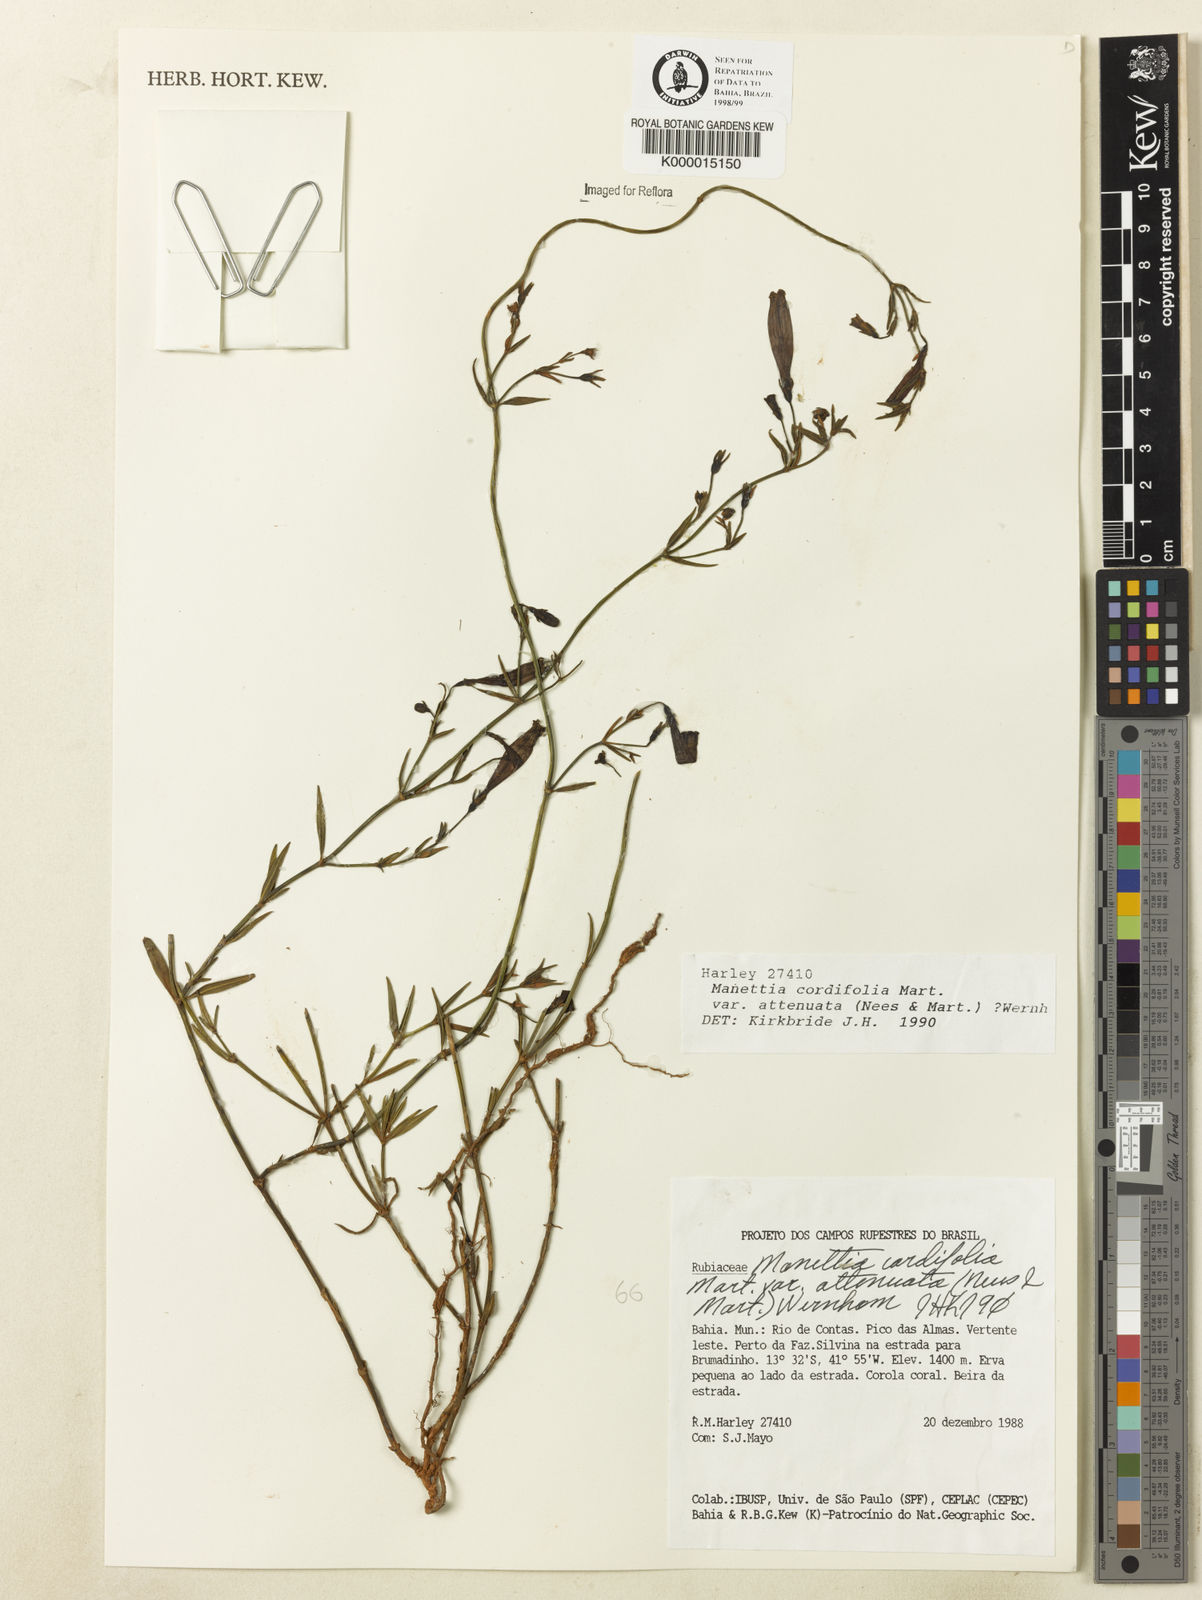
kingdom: Plantae
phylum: Tracheophyta
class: Magnoliopsida
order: Gentianales
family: Rubiaceae
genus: Manettia
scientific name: Manettia cordifolia
